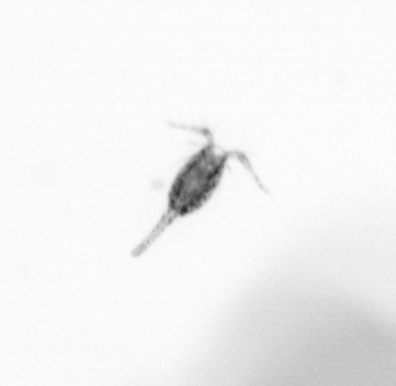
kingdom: Animalia
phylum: Arthropoda
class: Copepoda
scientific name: Copepoda
